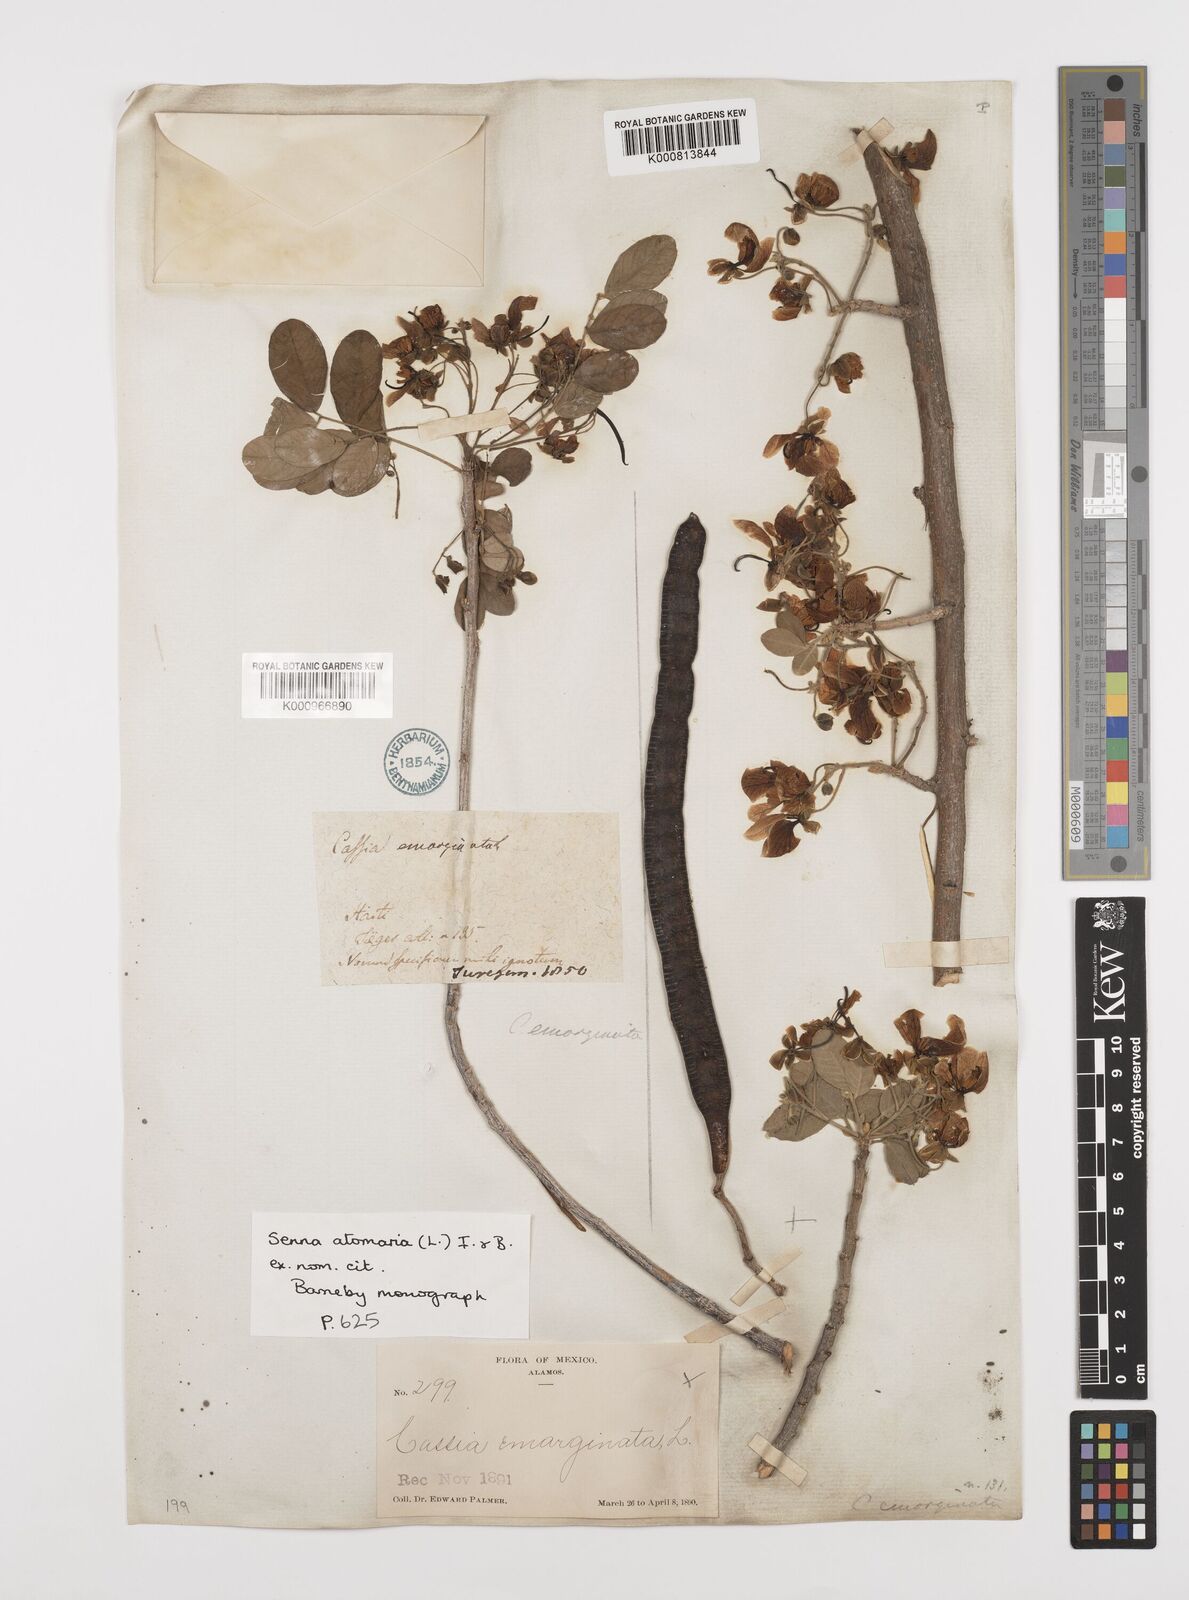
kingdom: Plantae
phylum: Tracheophyta
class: Magnoliopsida
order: Fabales
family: Fabaceae
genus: Senna
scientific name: Senna atomaria
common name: Flor de san jose
